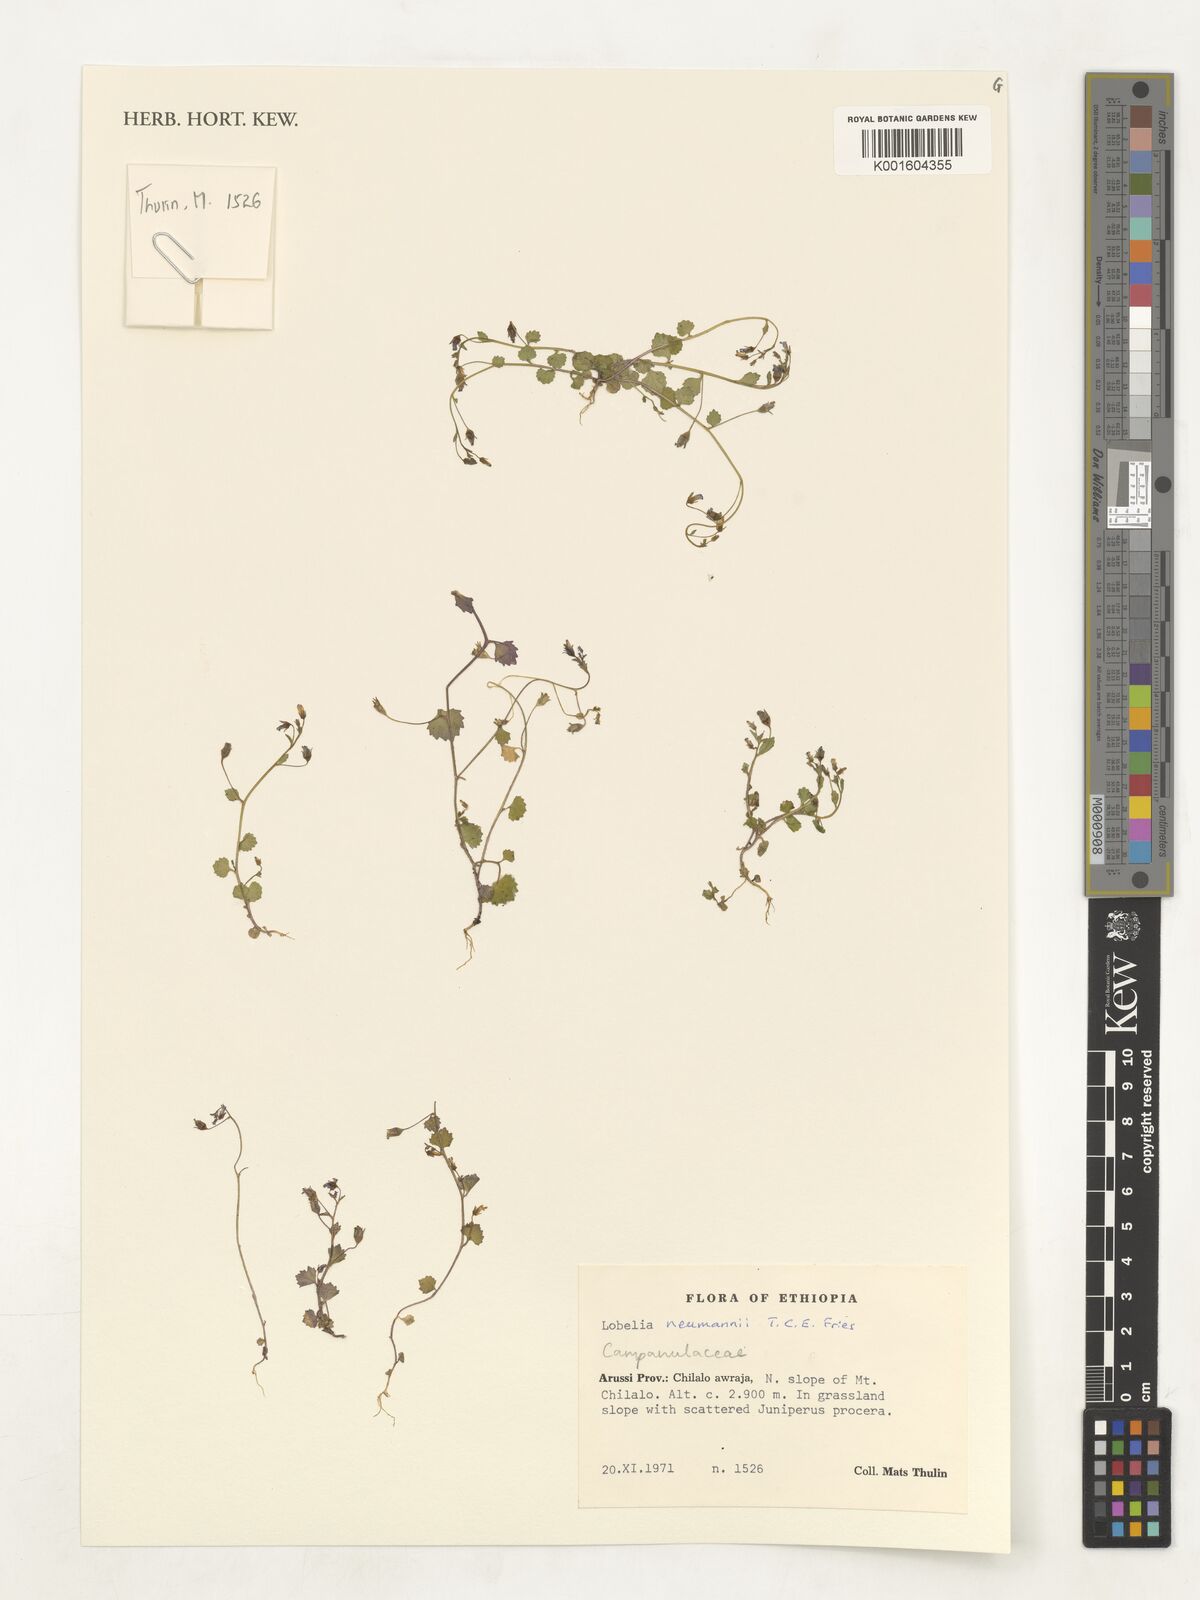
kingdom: Plantae
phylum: Tracheophyta
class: Magnoliopsida
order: Asterales
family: Campanulaceae
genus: Lobelia
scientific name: Lobelia neumannii
